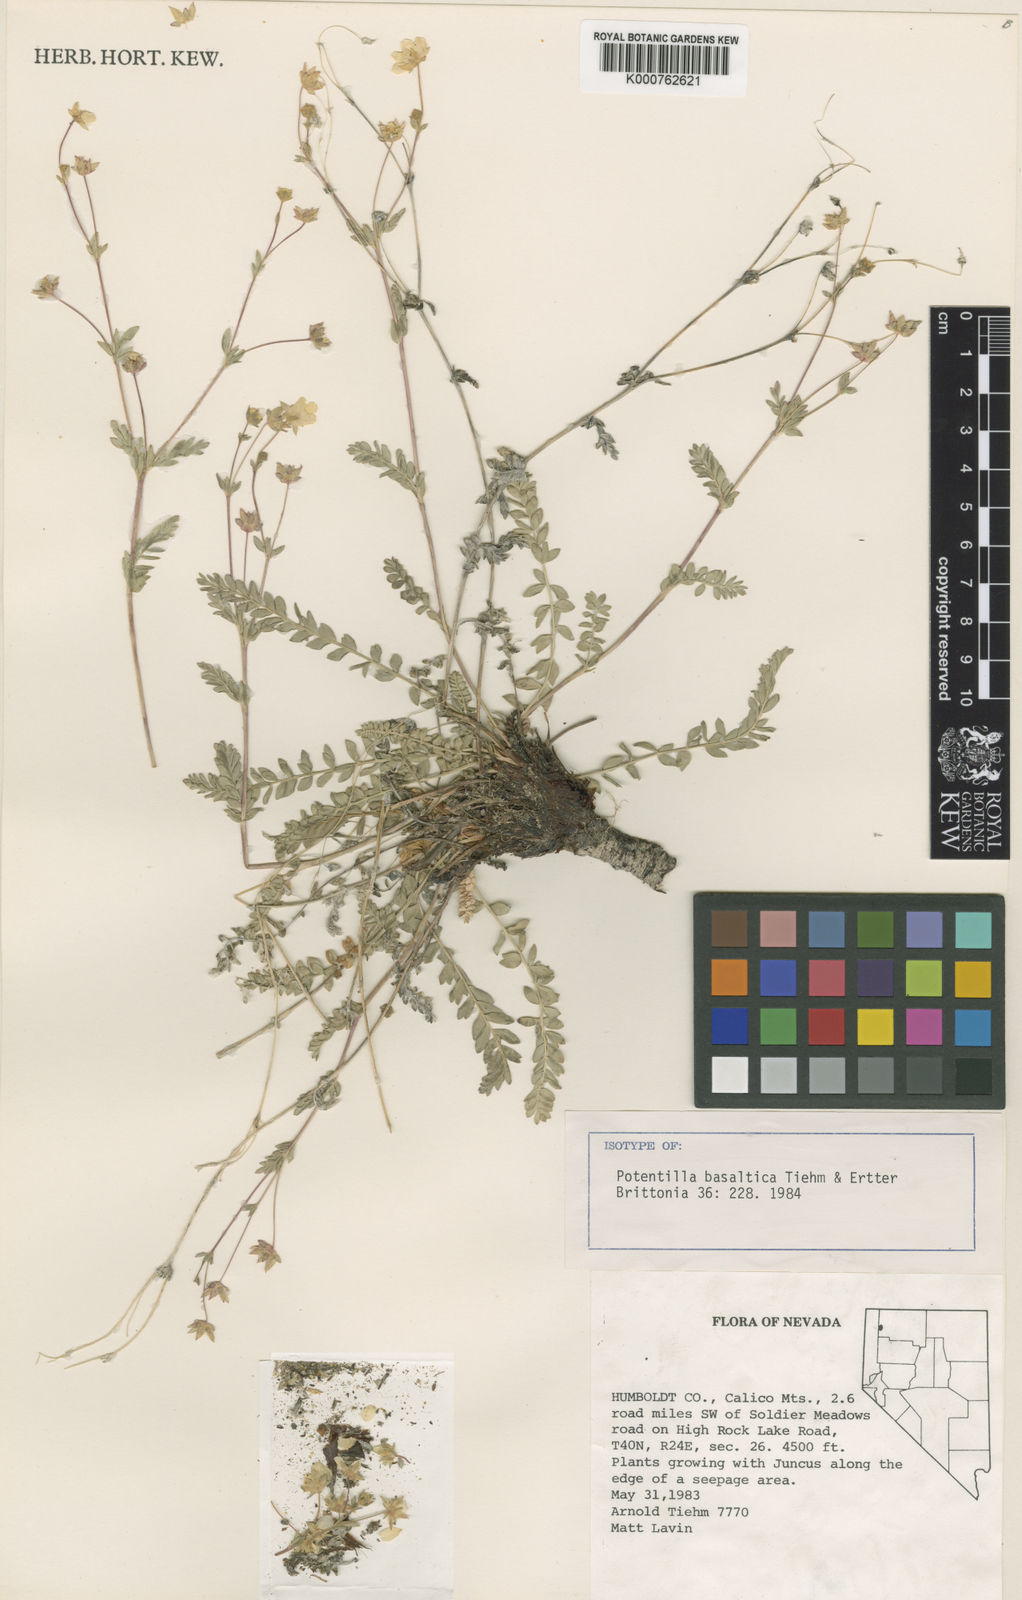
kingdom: Plantae
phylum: Tracheophyta
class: Magnoliopsida
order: Rosales
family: Rosaceae
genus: Potentilla
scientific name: Potentilla basaltica
